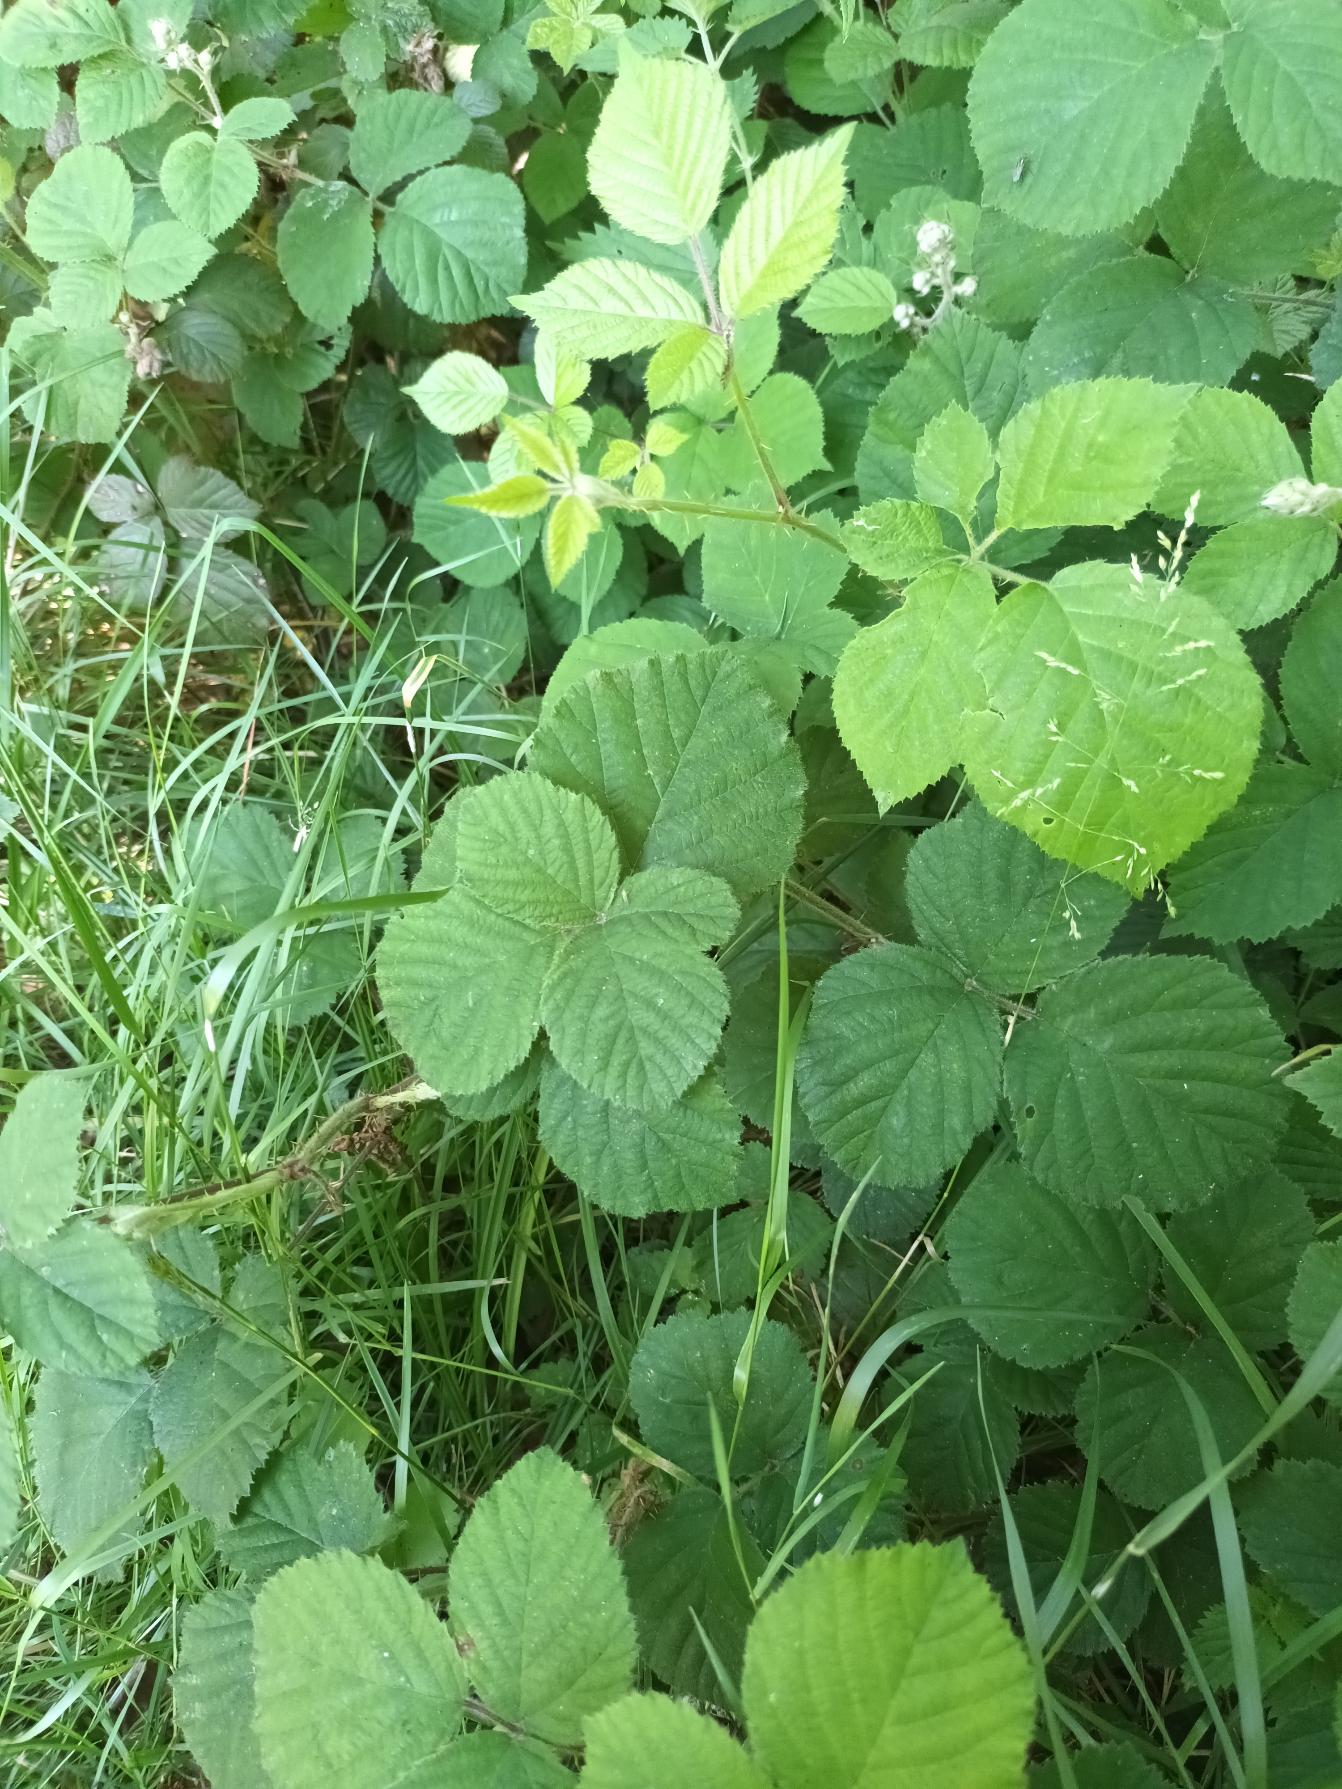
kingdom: Plantae
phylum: Tracheophyta
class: Magnoliopsida
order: Rosales
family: Rosaceae
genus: Rubus
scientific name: Rubus vestitus
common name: Rundbladet brombær
